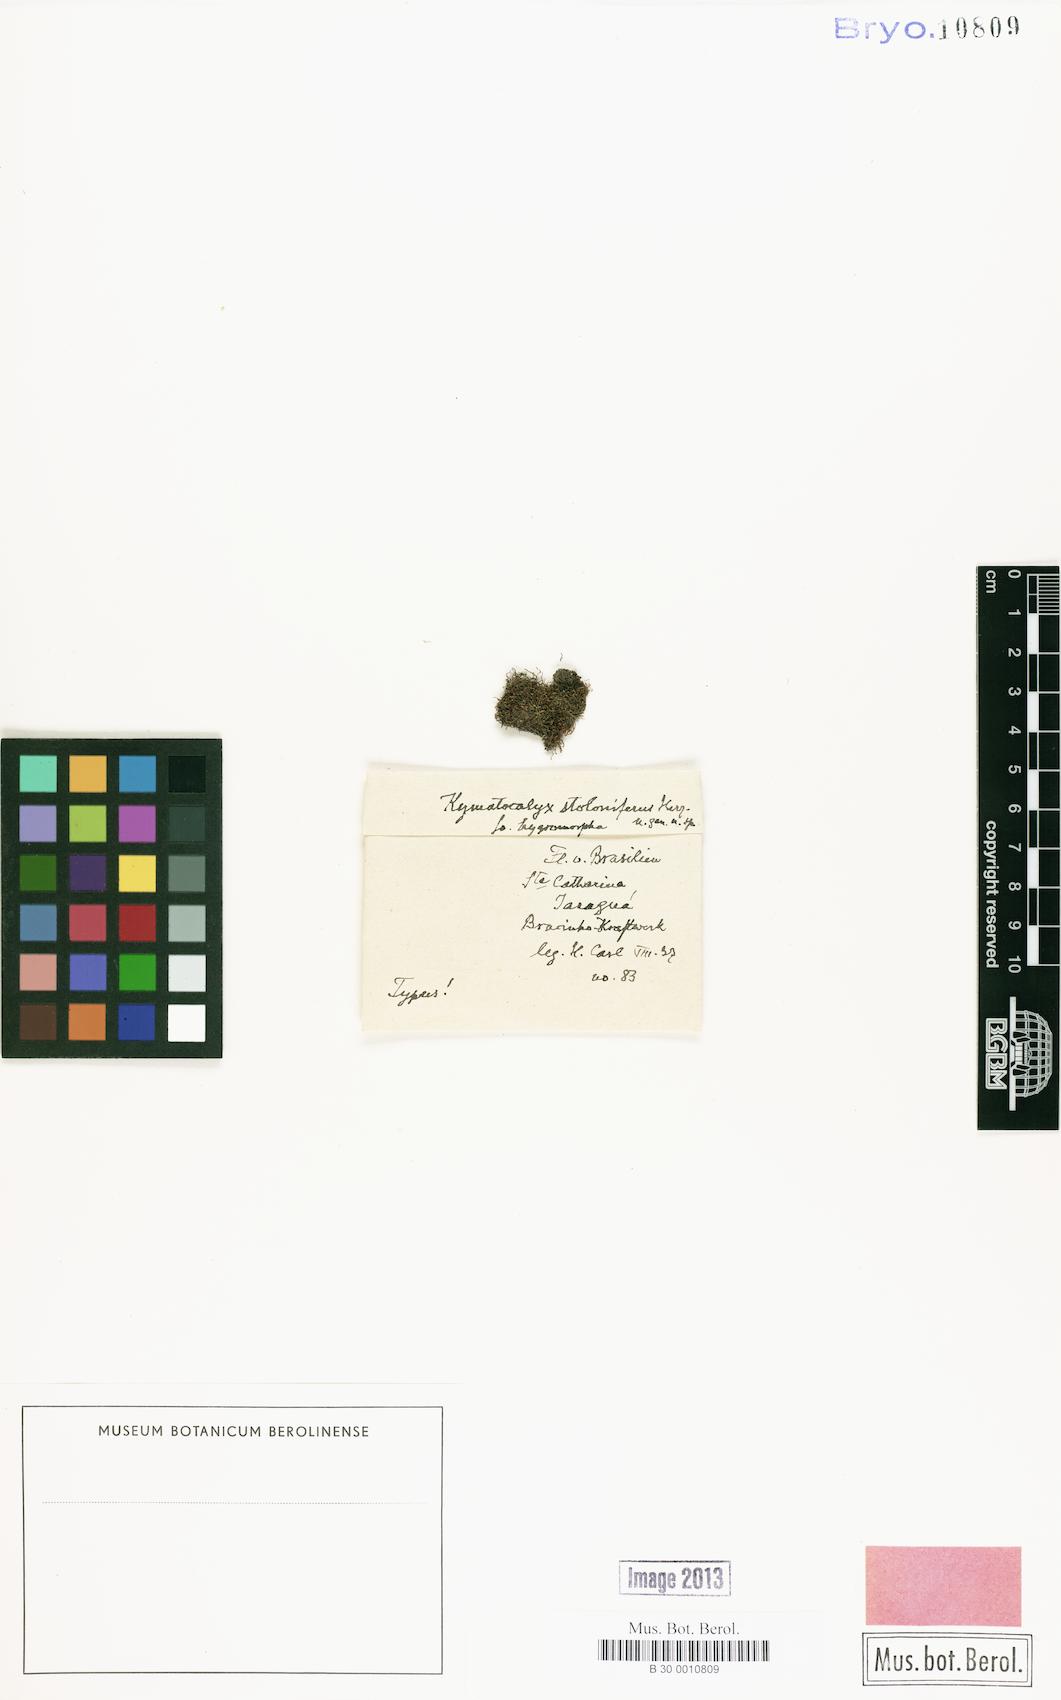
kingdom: Plantae
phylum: Marchantiophyta
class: Jungermanniopsida
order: Jungermanniales
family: Cephaloziellaceae
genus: Kymatocalyx
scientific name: Kymatocalyx dominicensis
